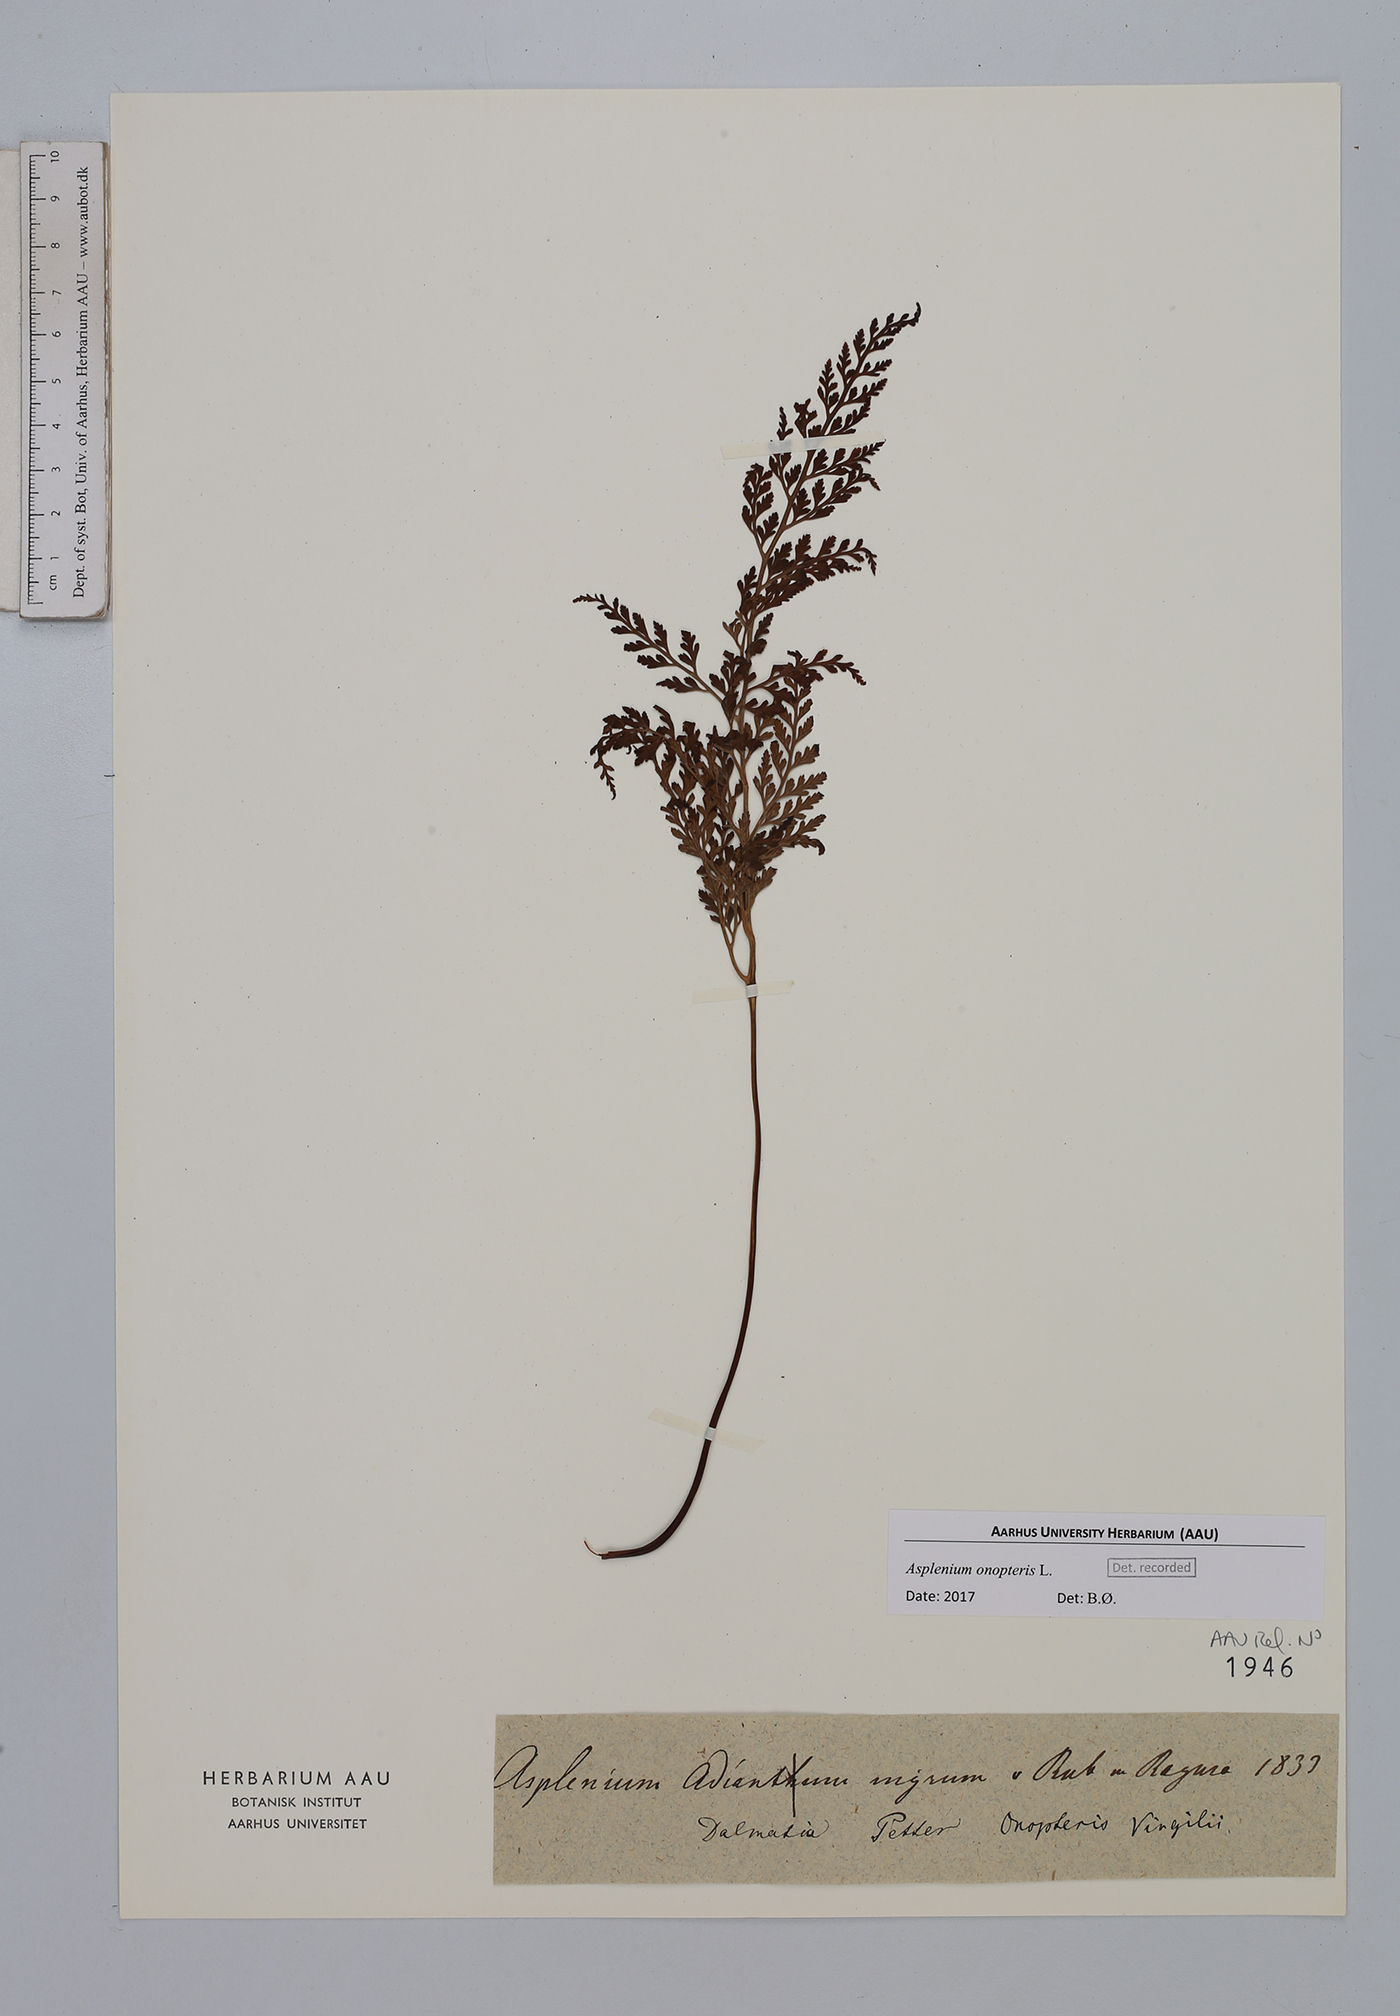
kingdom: Plantae
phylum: Tracheophyta
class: Polypodiopsida
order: Polypodiales
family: Aspleniaceae
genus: Asplenium
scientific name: Asplenium onopteris
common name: Irish spleenwort
